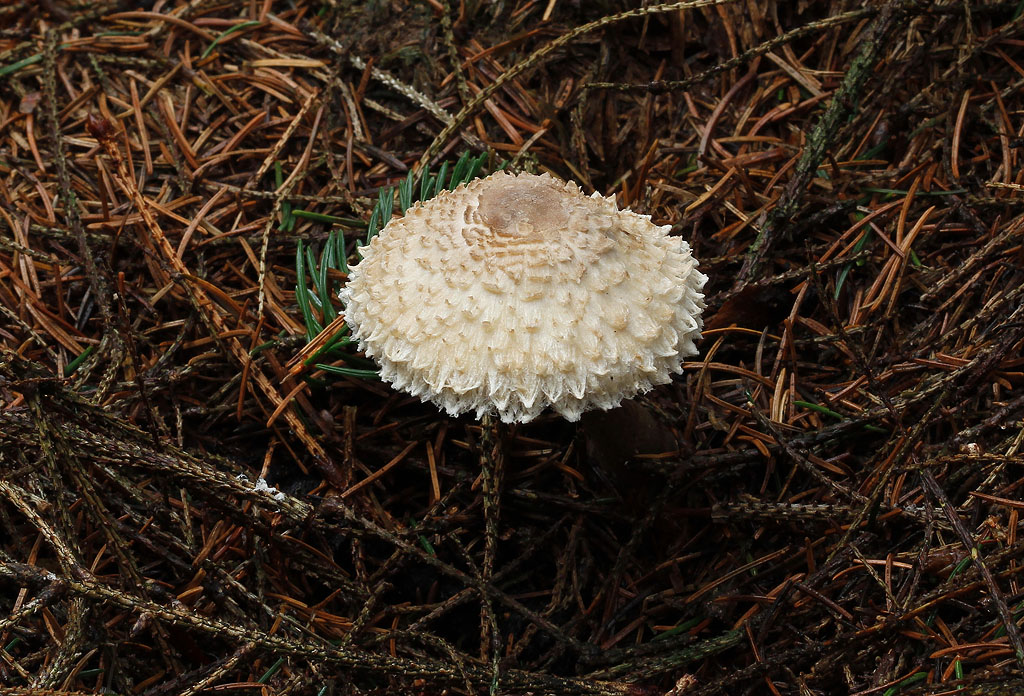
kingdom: Fungi
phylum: Basidiomycota
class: Agaricomycetes
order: Agaricales
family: Agaricaceae
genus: Leucoagaricus
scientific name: Leucoagaricus nympharum
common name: gran-silkehat
